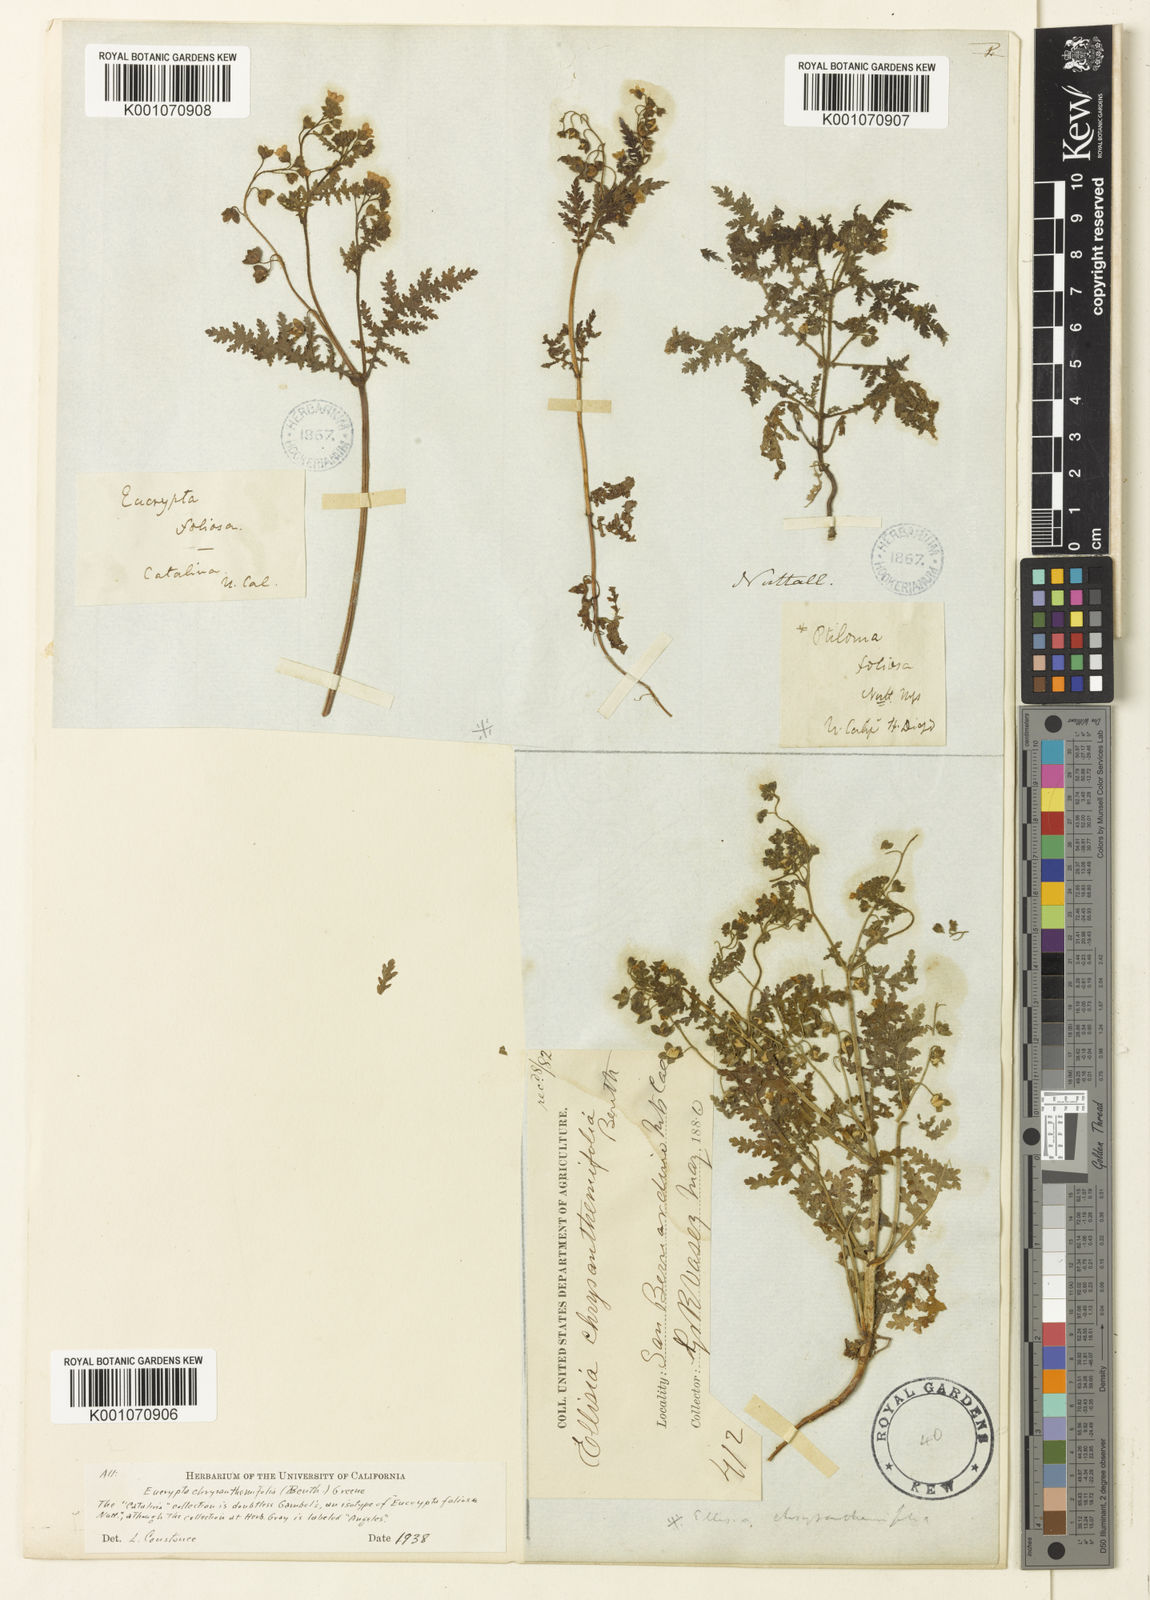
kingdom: Plantae
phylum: Tracheophyta
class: Magnoliopsida
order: Boraginales
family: Hydrophyllaceae
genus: Eucrypta
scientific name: Eucrypta chrysanthemifolia
